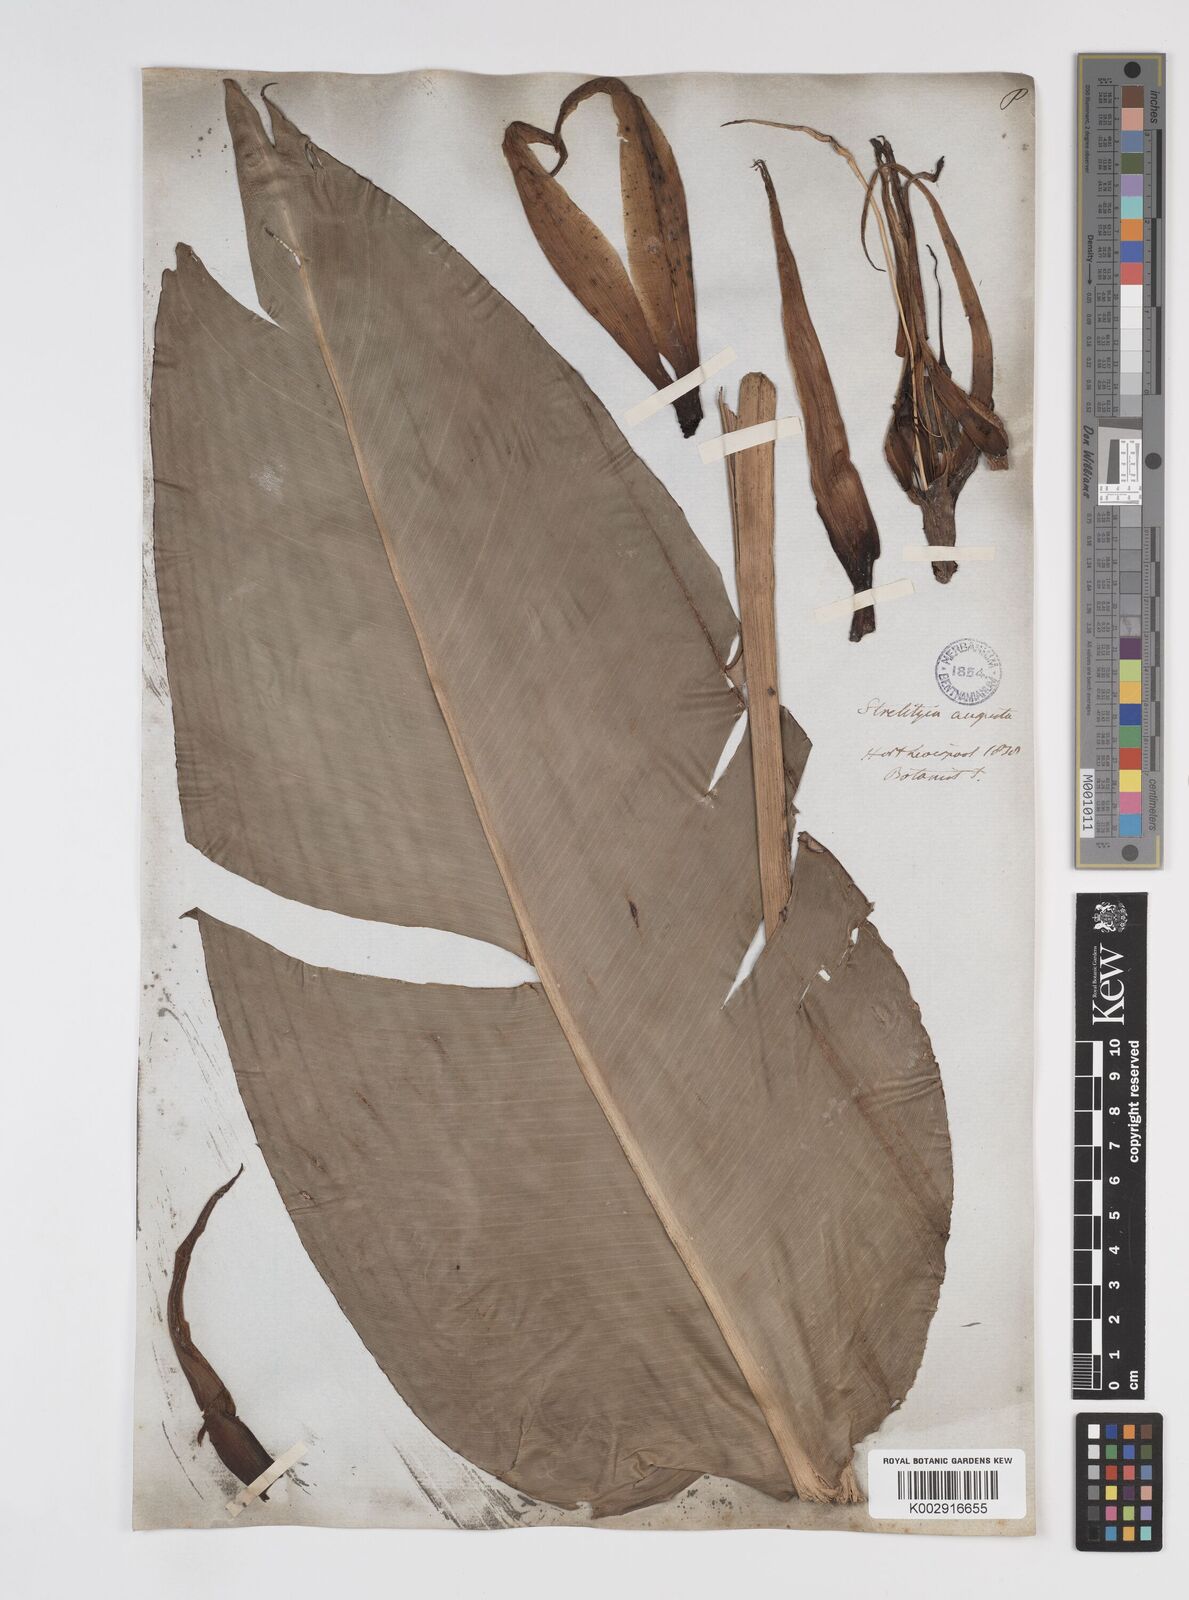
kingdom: Plantae
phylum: Tracheophyta
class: Liliopsida
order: Zingiberales
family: Strelitziaceae
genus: Strelitzia
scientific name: Strelitzia alba
